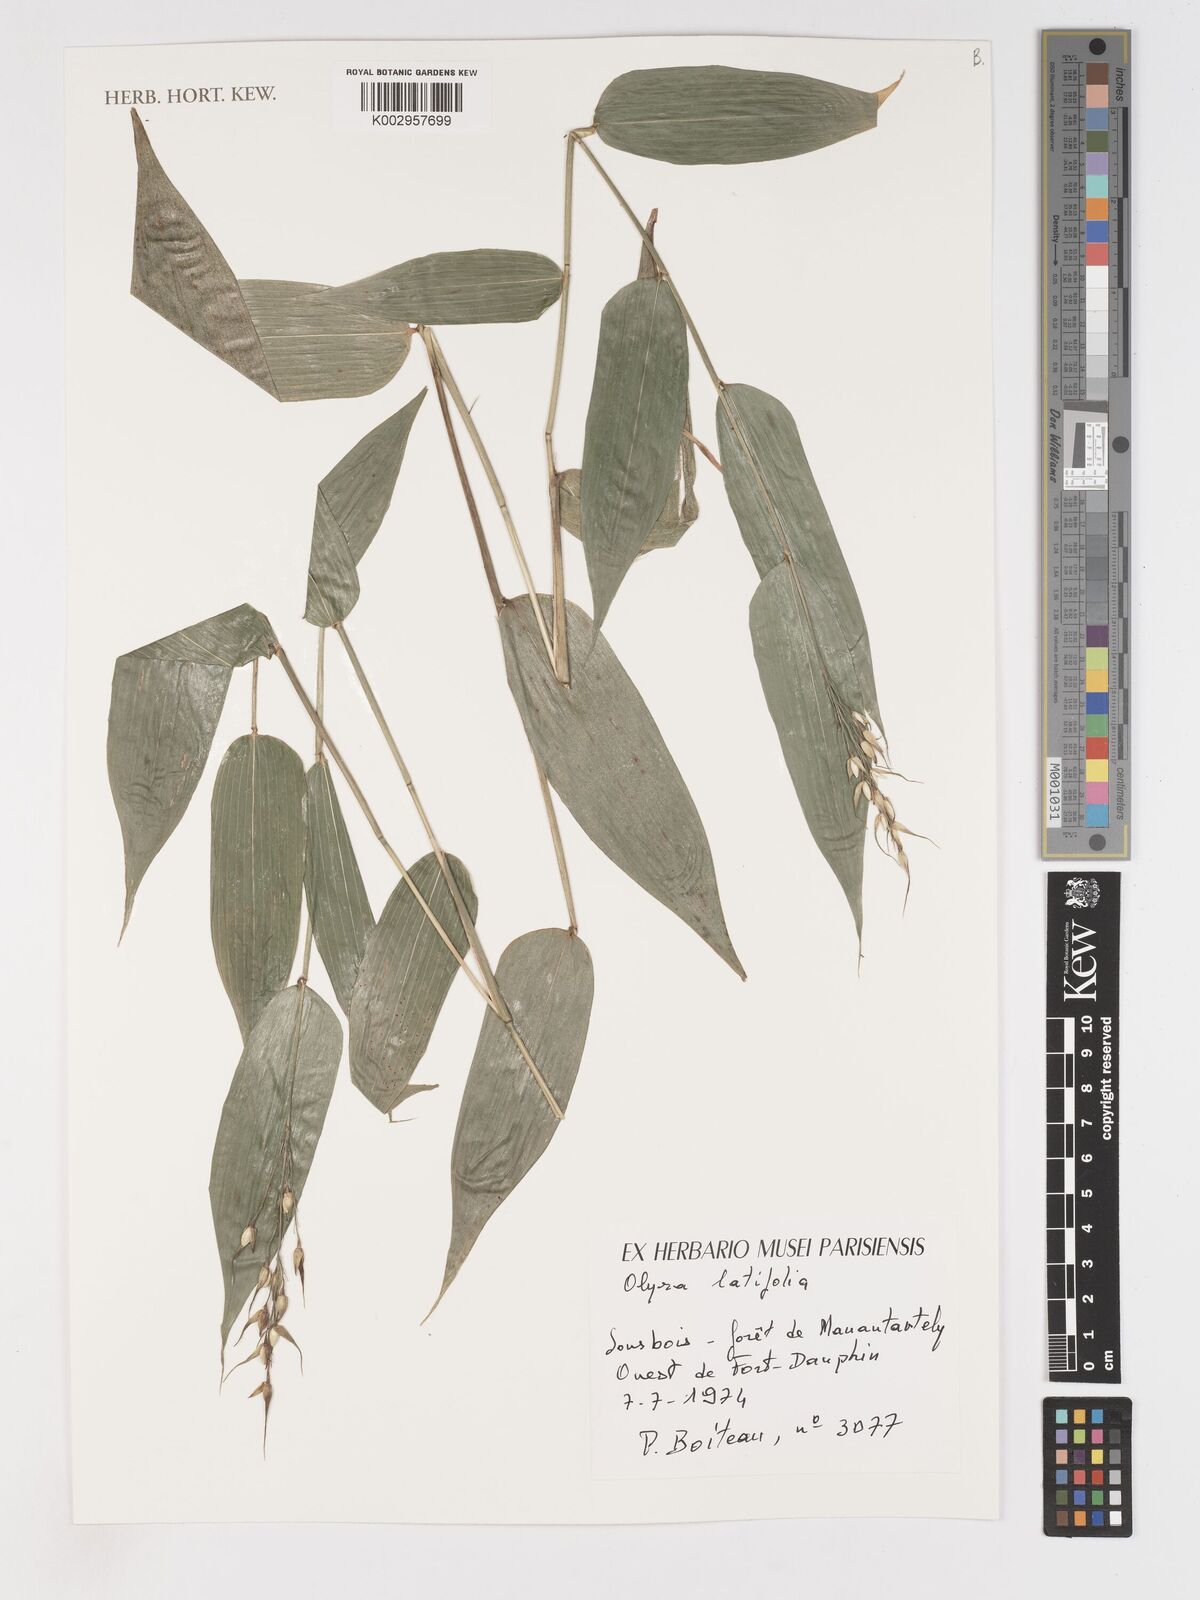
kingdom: Plantae
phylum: Tracheophyta
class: Liliopsida
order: Poales
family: Poaceae
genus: Olyra
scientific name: Olyra latifolia
